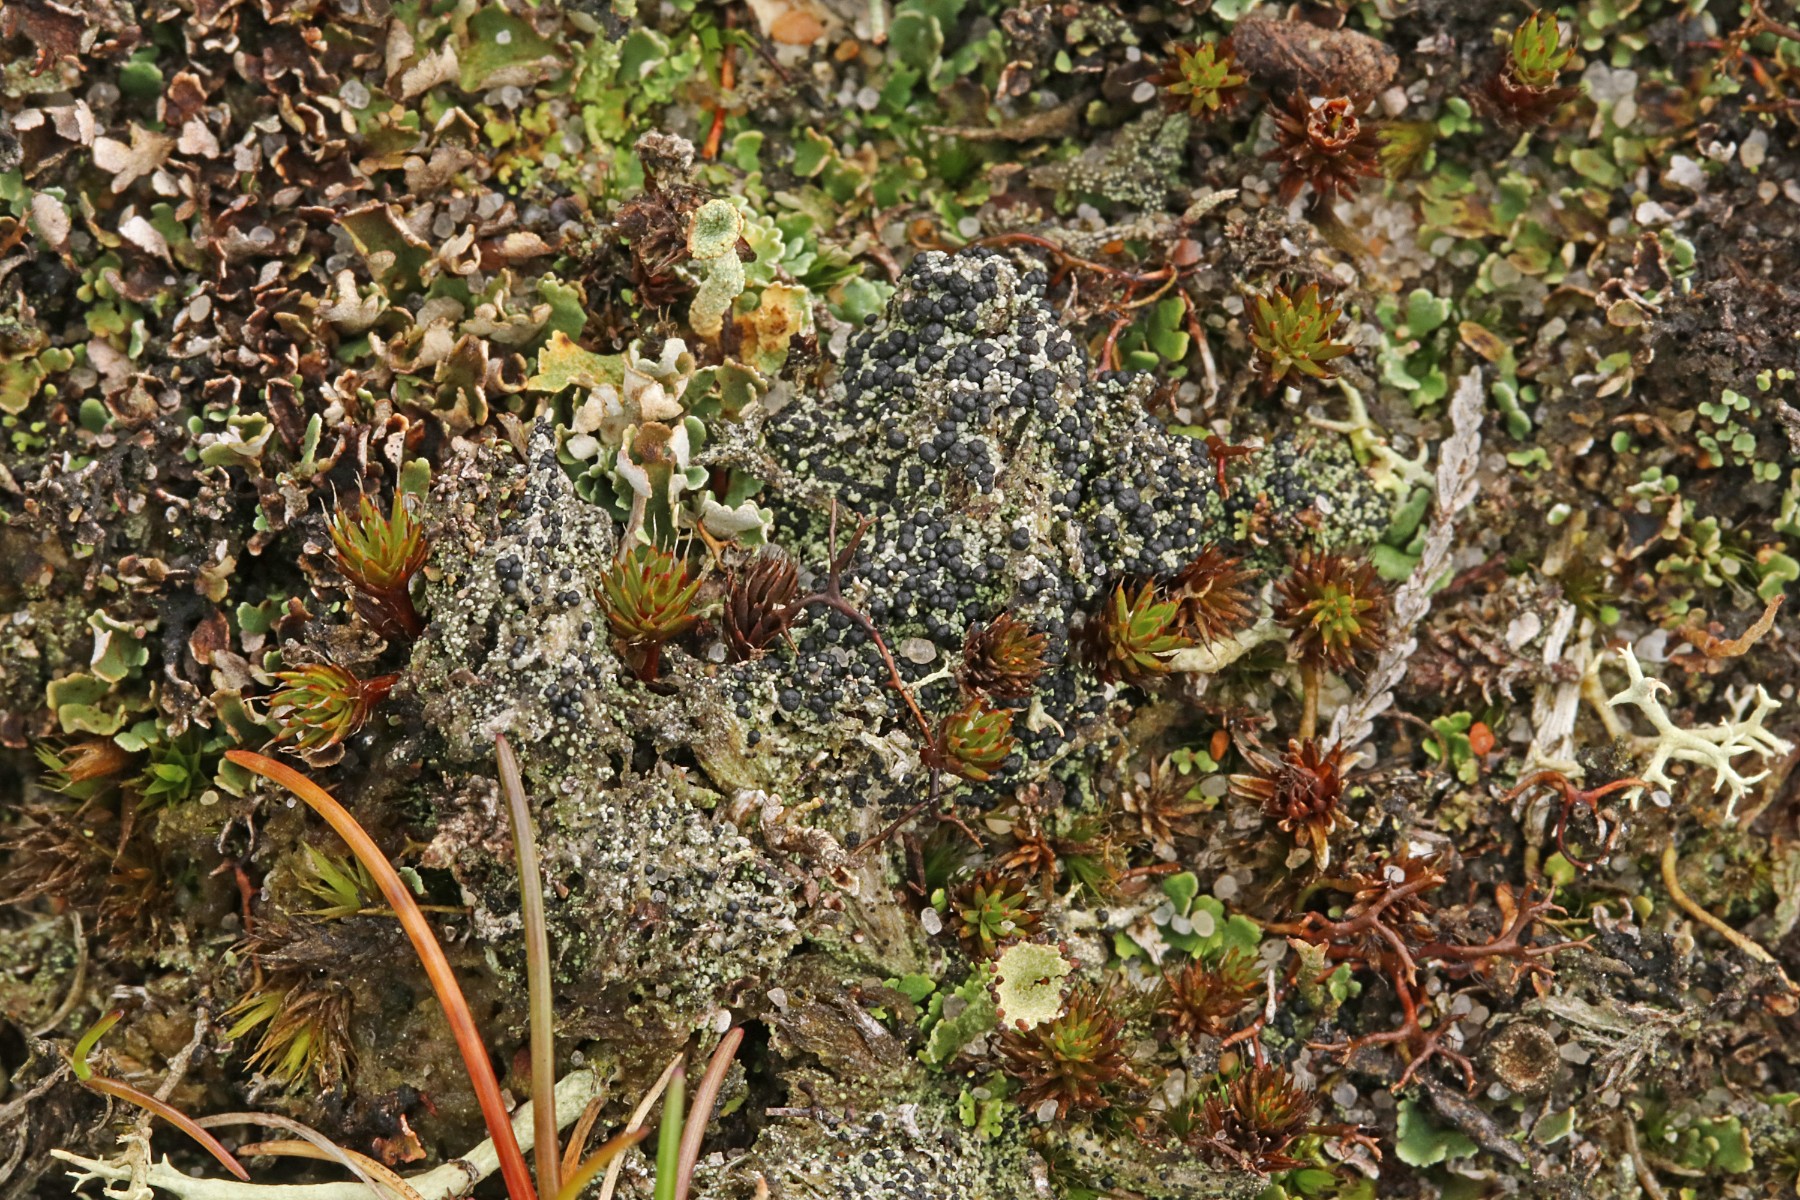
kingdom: Fungi
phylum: Ascomycota
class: Lecanoromycetes
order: Lecanorales
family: Byssolomataceae
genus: Micarea
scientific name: Micarea lignaria
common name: tørve-knaplav
